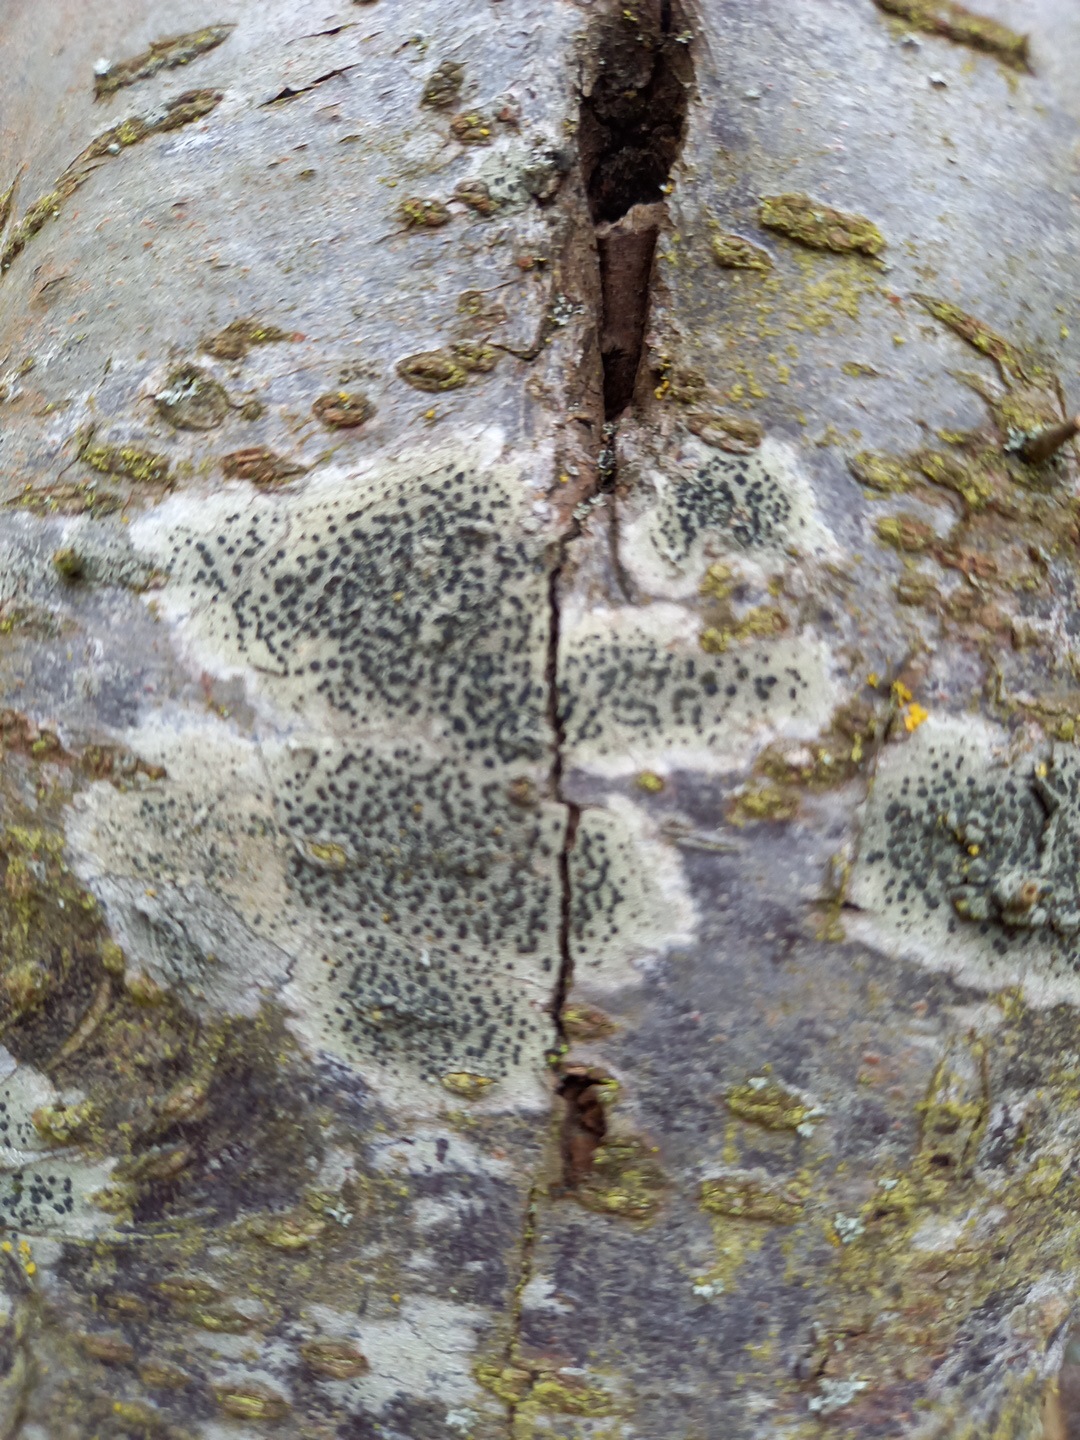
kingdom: Fungi
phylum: Ascomycota
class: Lecanoromycetes
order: Lecanorales
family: Lecanoraceae
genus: Lecidella
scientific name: Lecidella elaeochroma
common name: grågrøn skivelav
